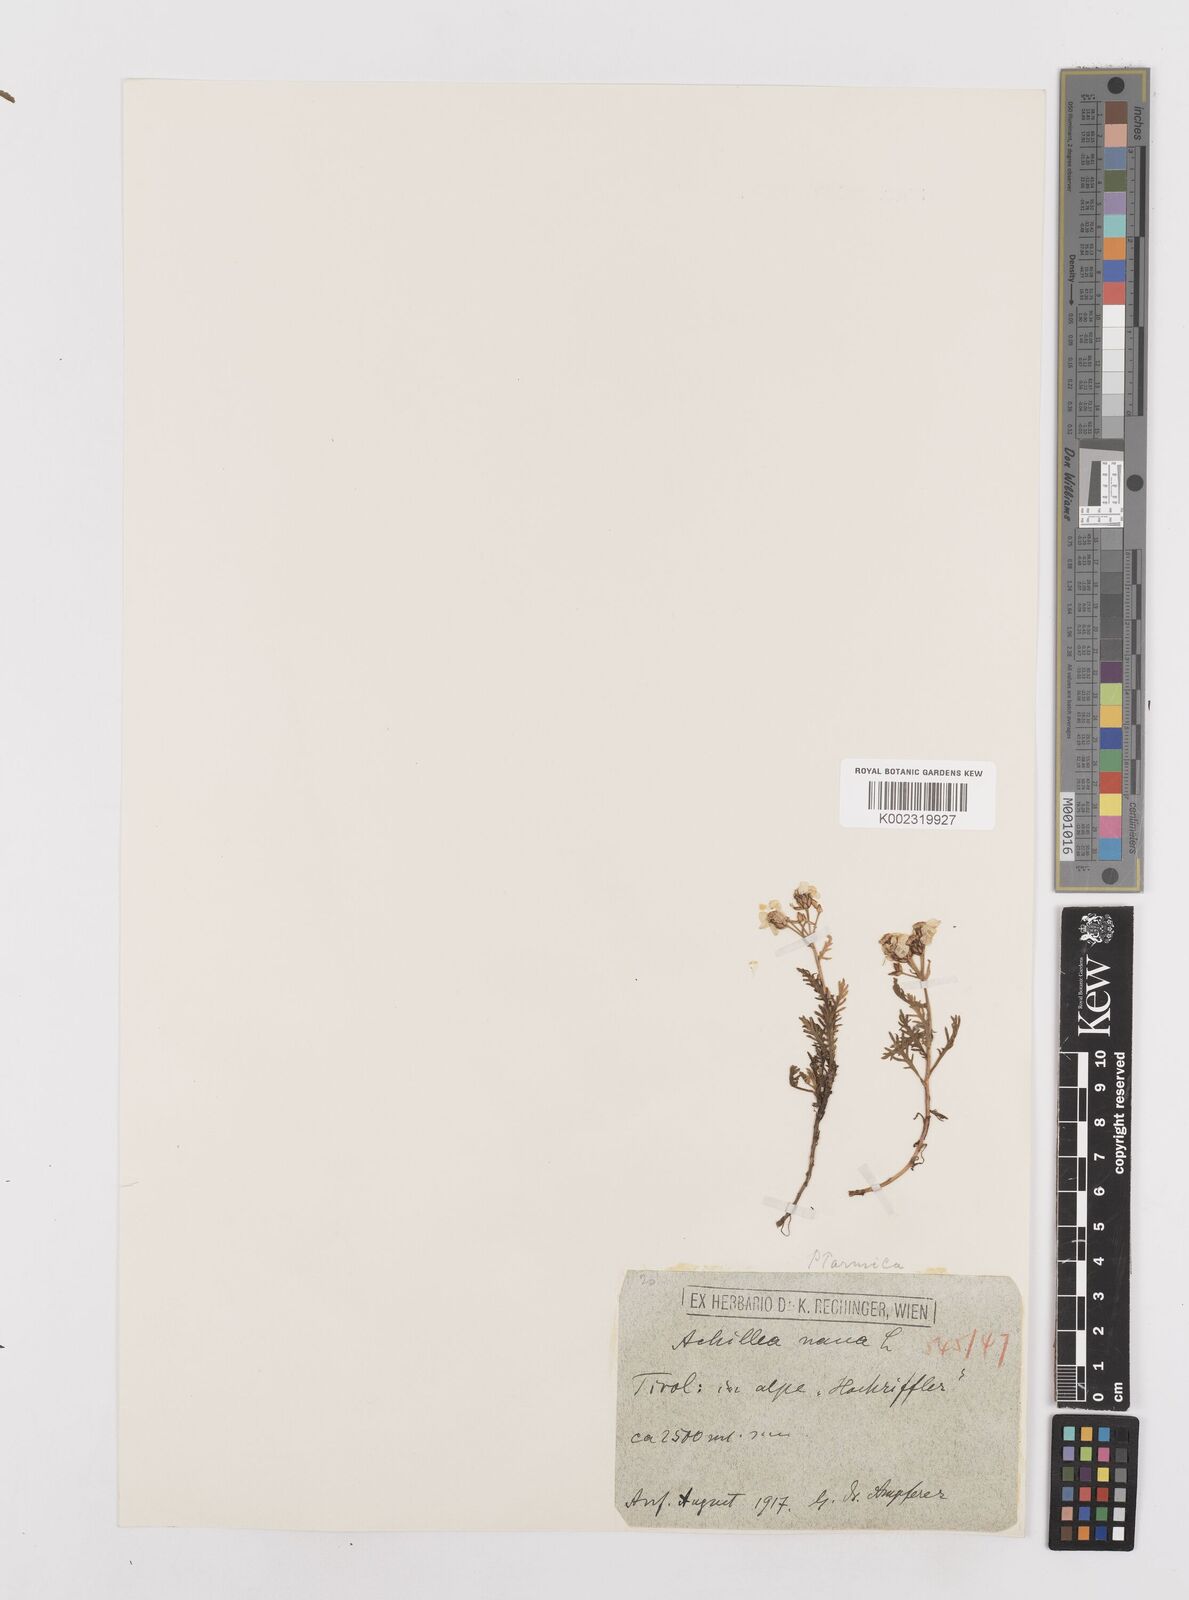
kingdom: Plantae
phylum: Tracheophyta
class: Magnoliopsida
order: Asterales
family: Asteraceae
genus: Achillea
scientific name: Achillea
